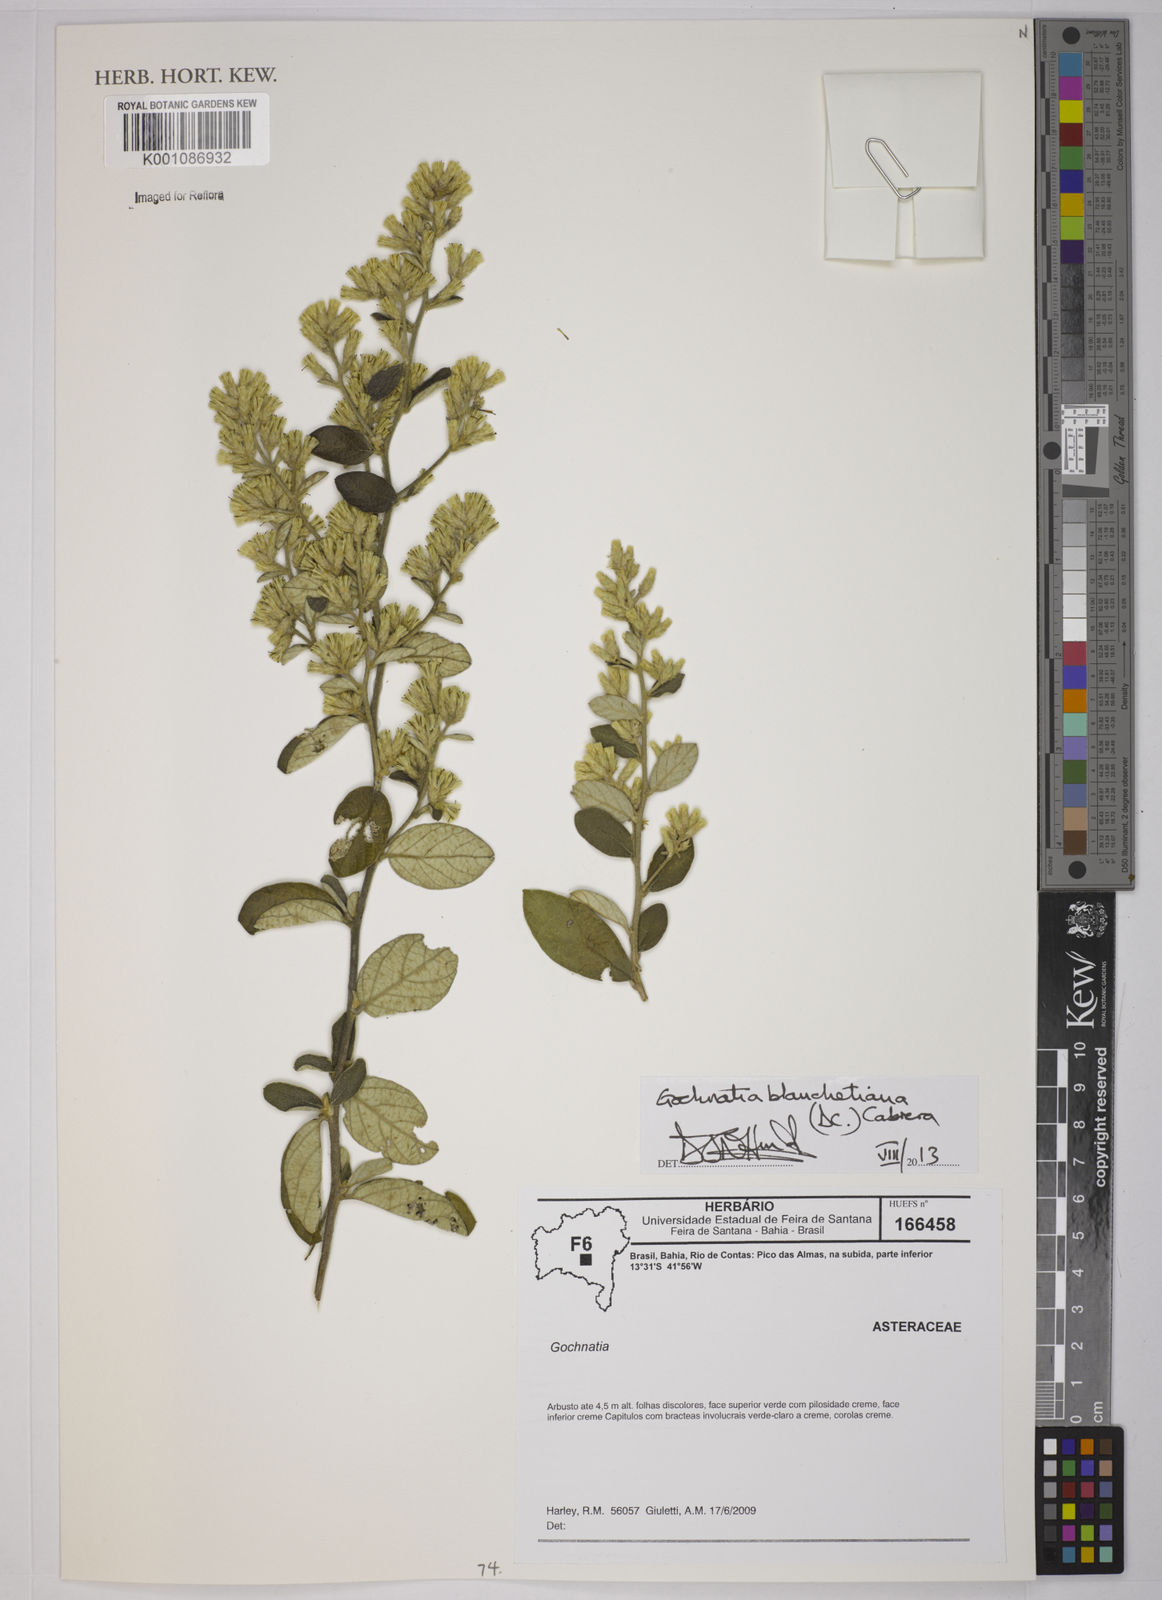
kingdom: Plantae
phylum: Tracheophyta
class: Magnoliopsida
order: Asterales
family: Asteraceae
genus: Moquiniastrum
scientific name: Moquiniastrum blanchetianum
